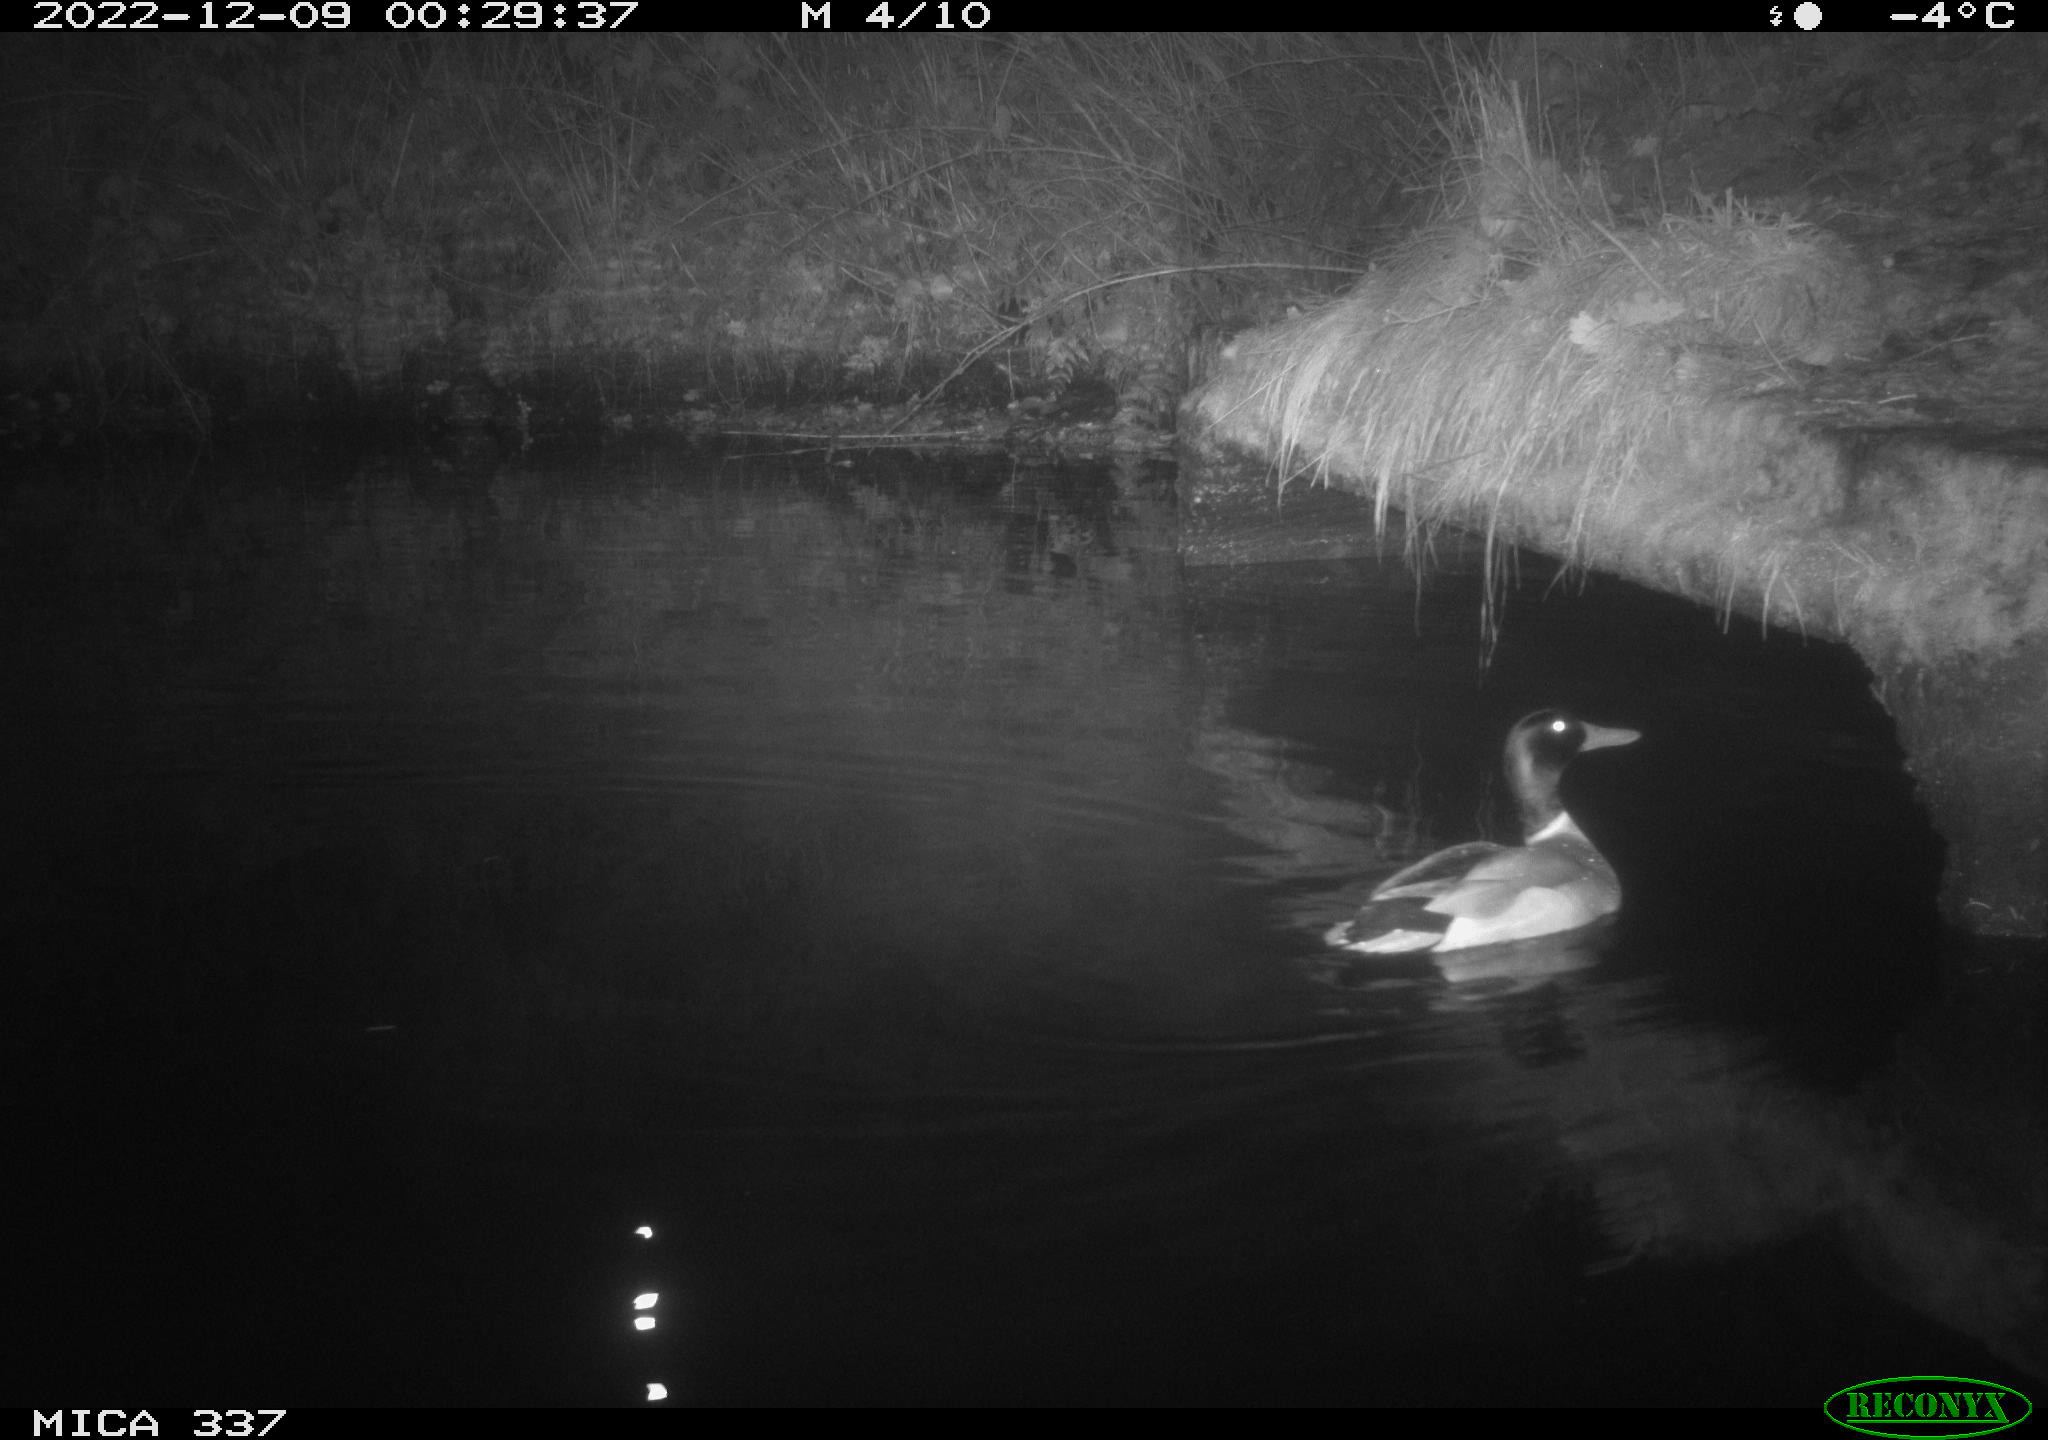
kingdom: Animalia
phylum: Chordata
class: Aves
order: Anseriformes
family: Anatidae
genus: Anas
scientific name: Anas
